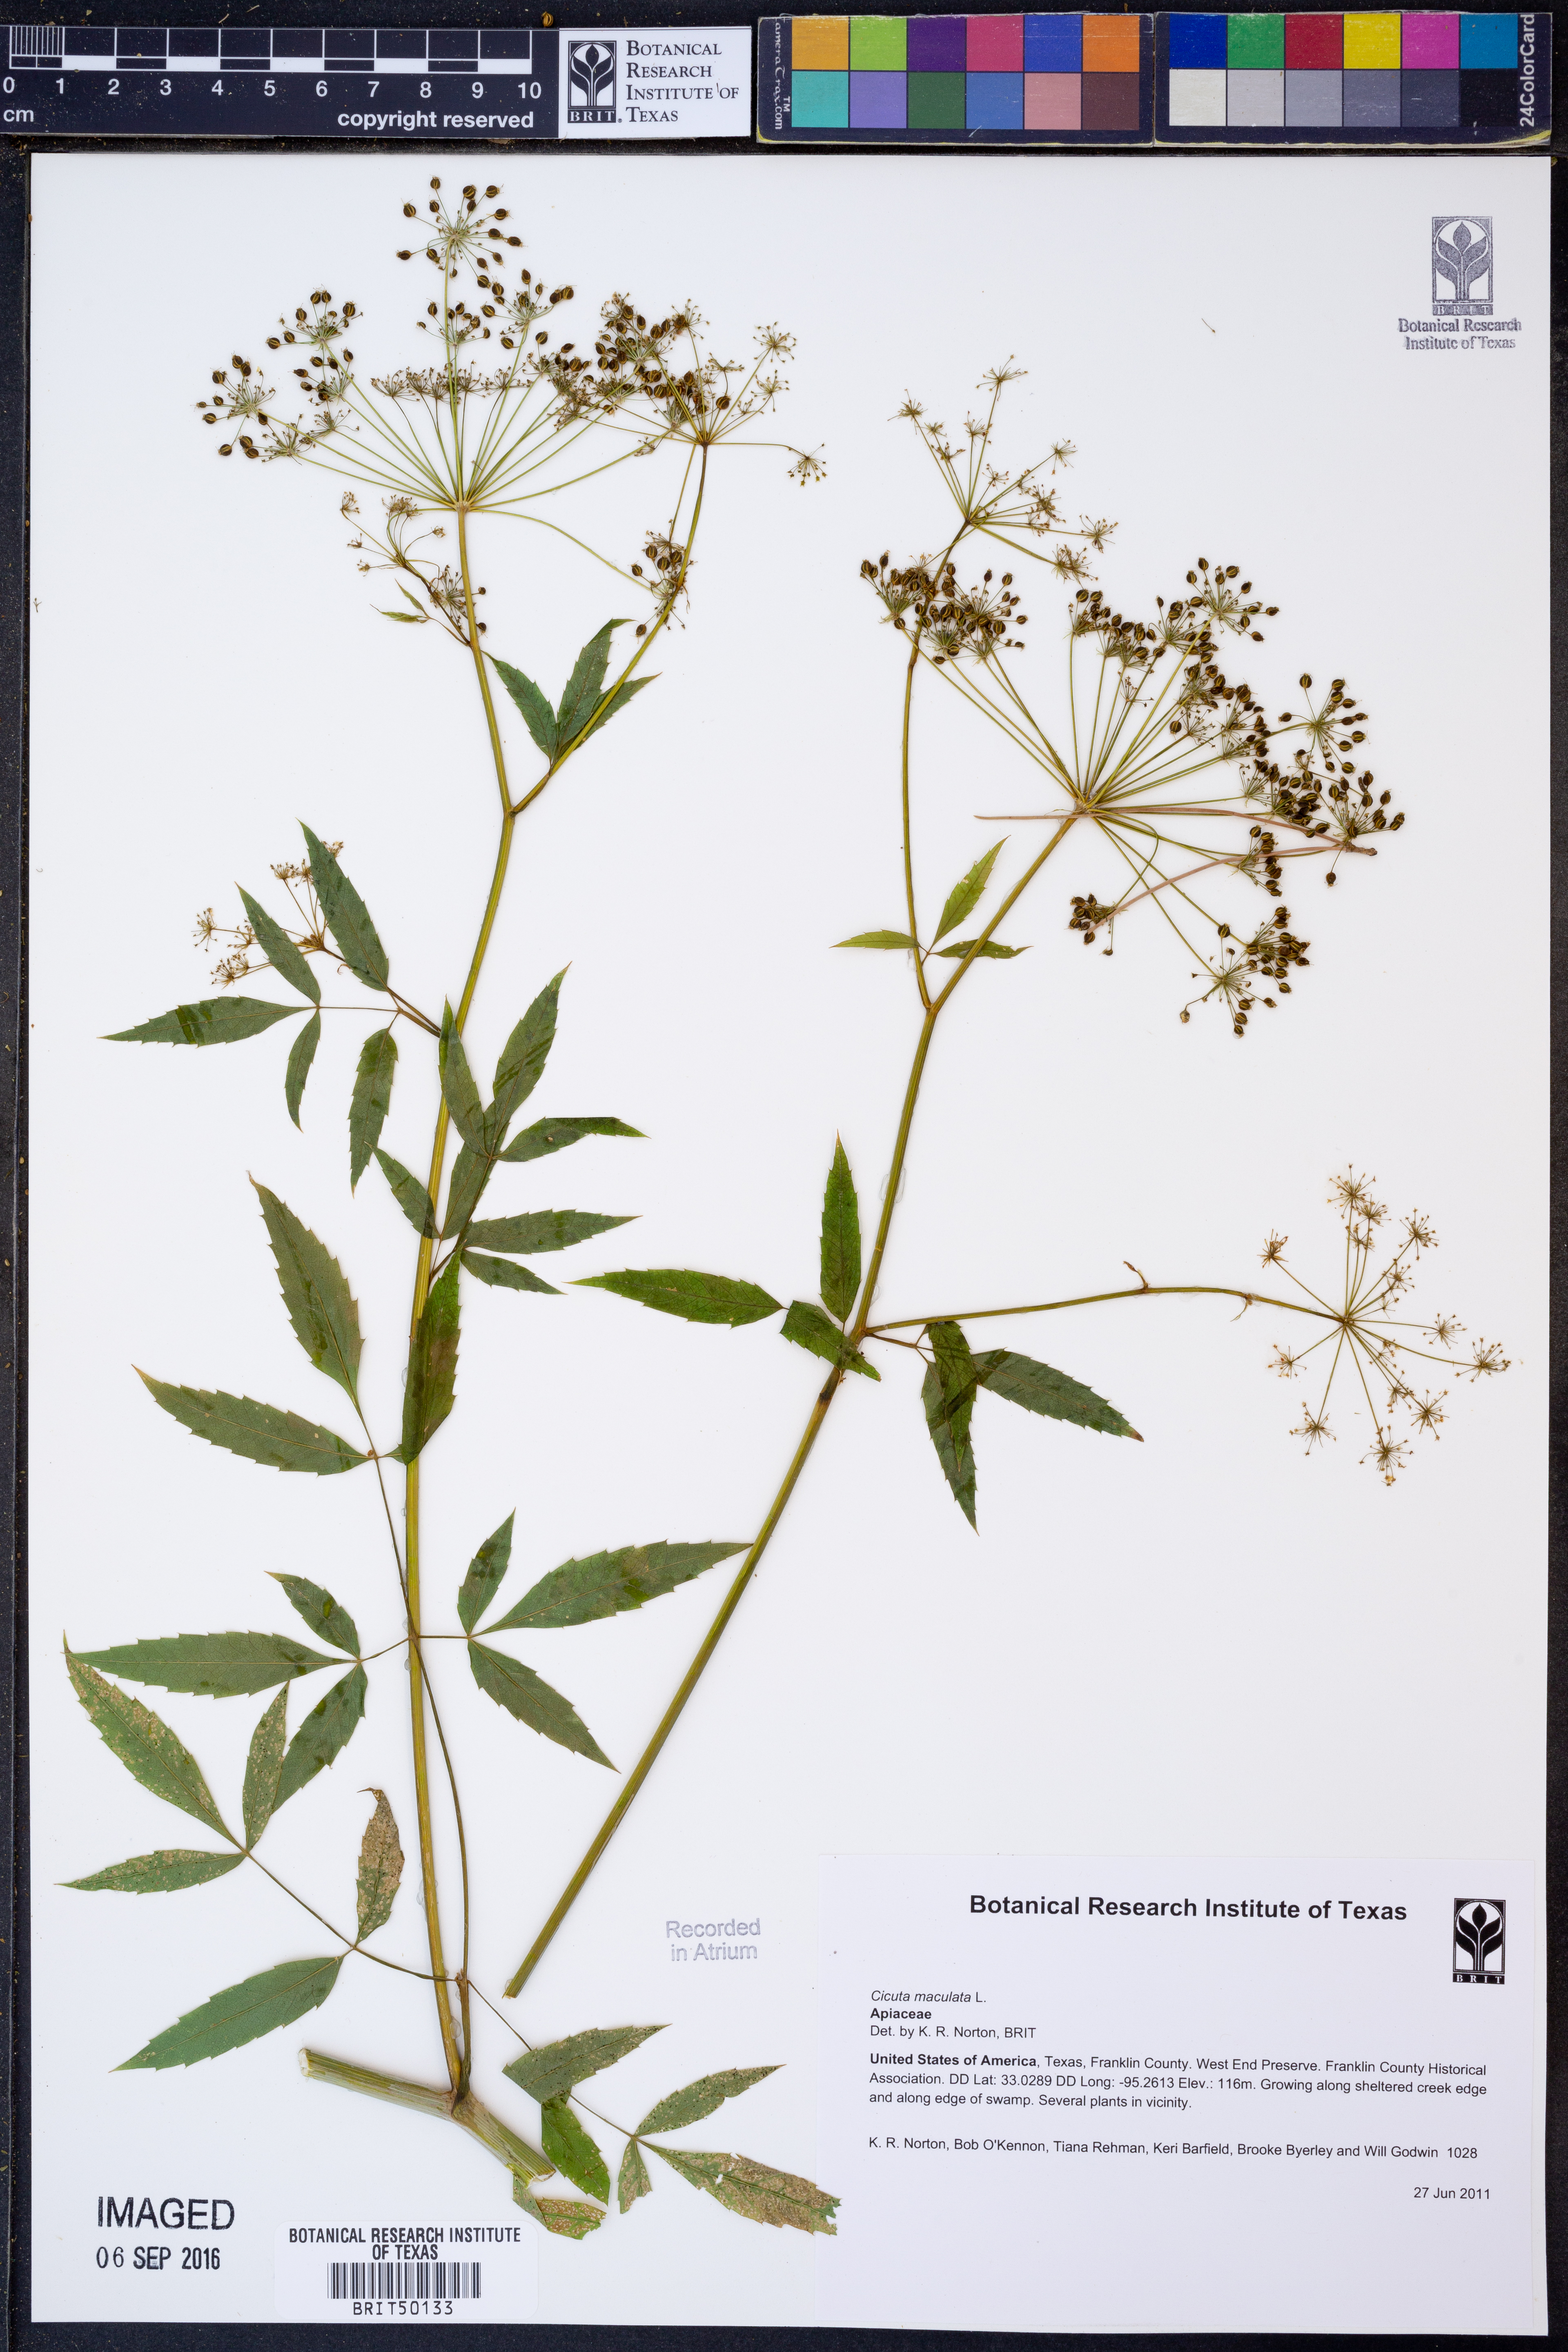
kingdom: Plantae
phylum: Tracheophyta
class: Magnoliopsida
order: Apiales
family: Apiaceae
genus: Cicuta
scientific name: Cicuta maculata
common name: Spotted cowbane
